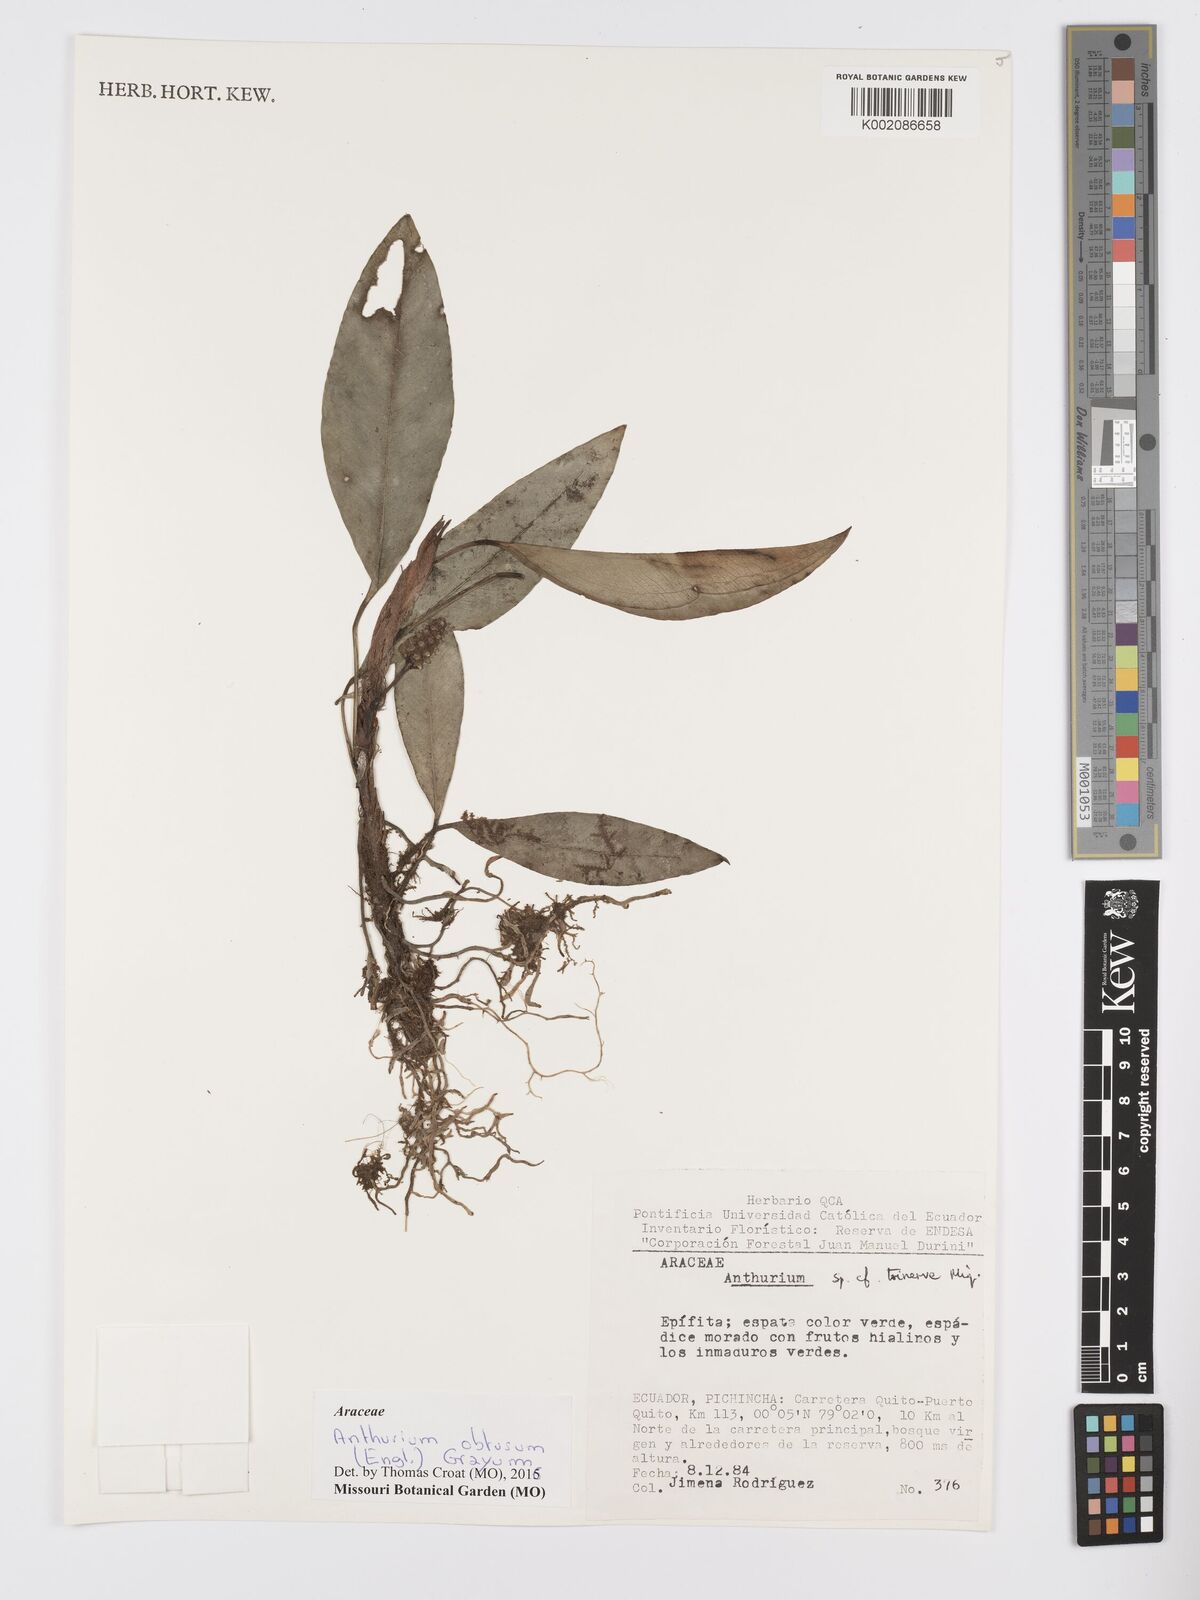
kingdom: Plantae
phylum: Tracheophyta
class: Liliopsida
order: Alismatales
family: Araceae
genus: Anthurium
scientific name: Anthurium obtusum
